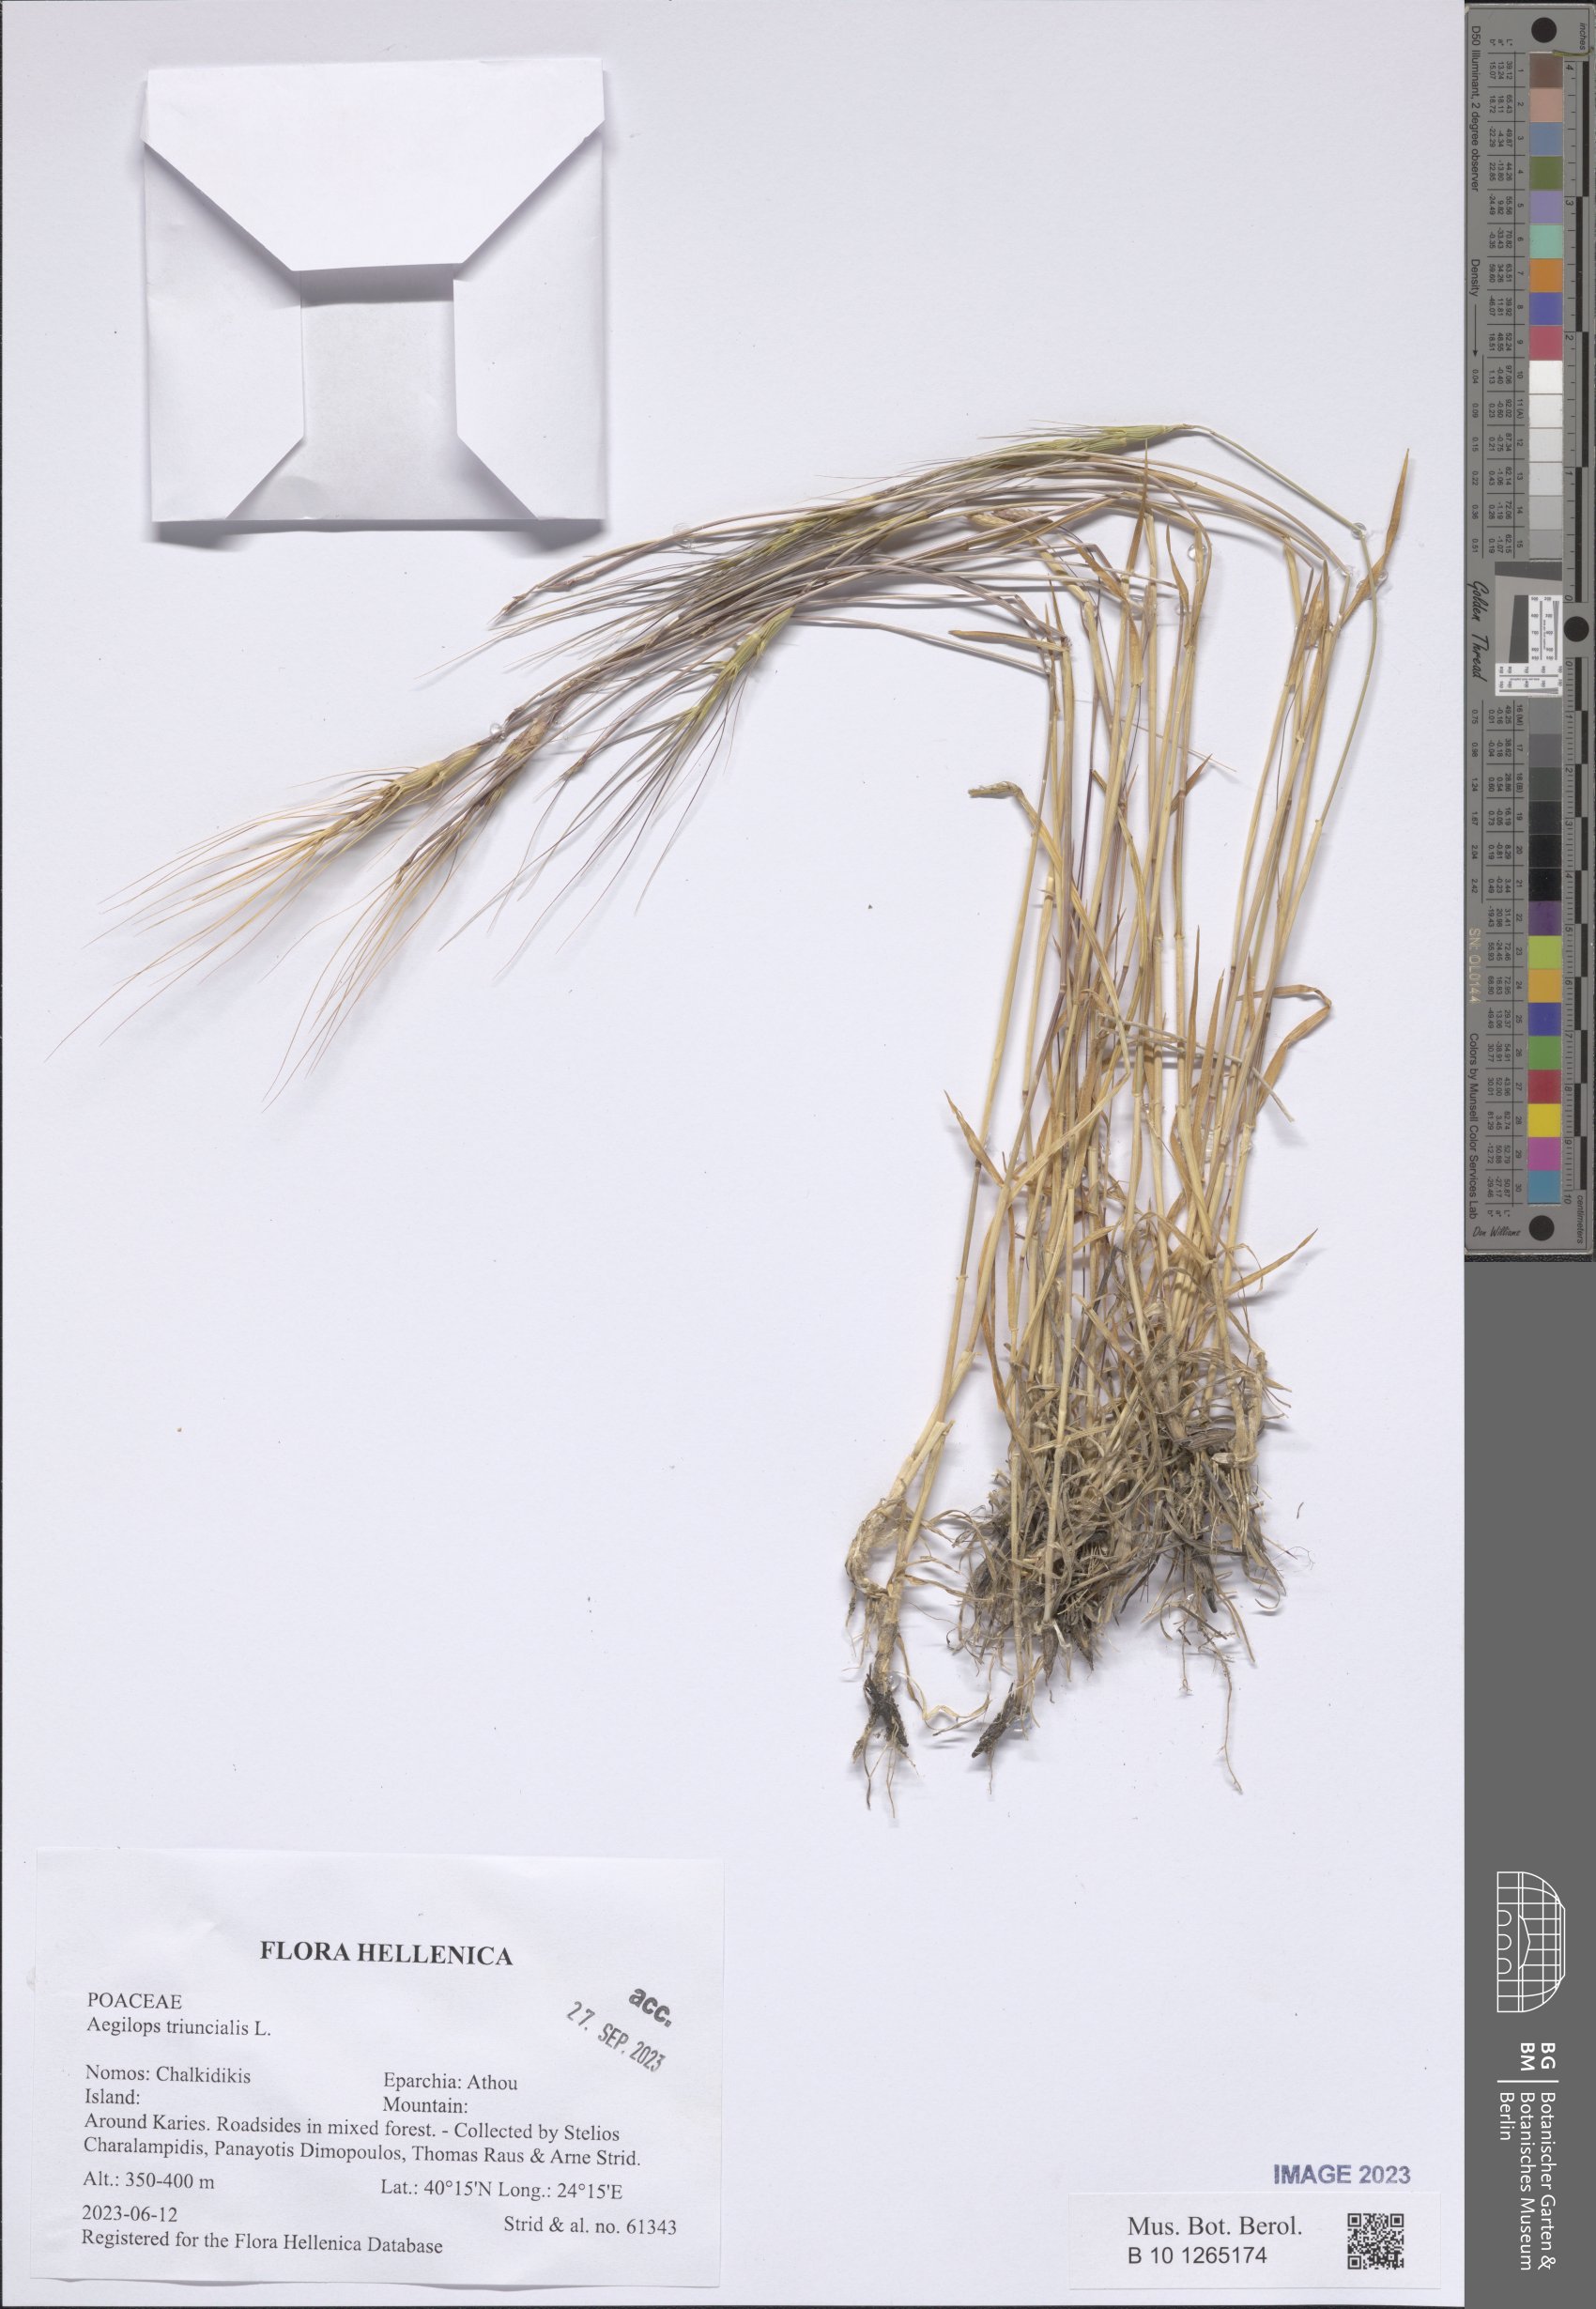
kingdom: Plantae
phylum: Tracheophyta
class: Liliopsida
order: Poales
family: Poaceae
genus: Aegilops
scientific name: Aegilops triuncialis
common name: Barb goat grass
